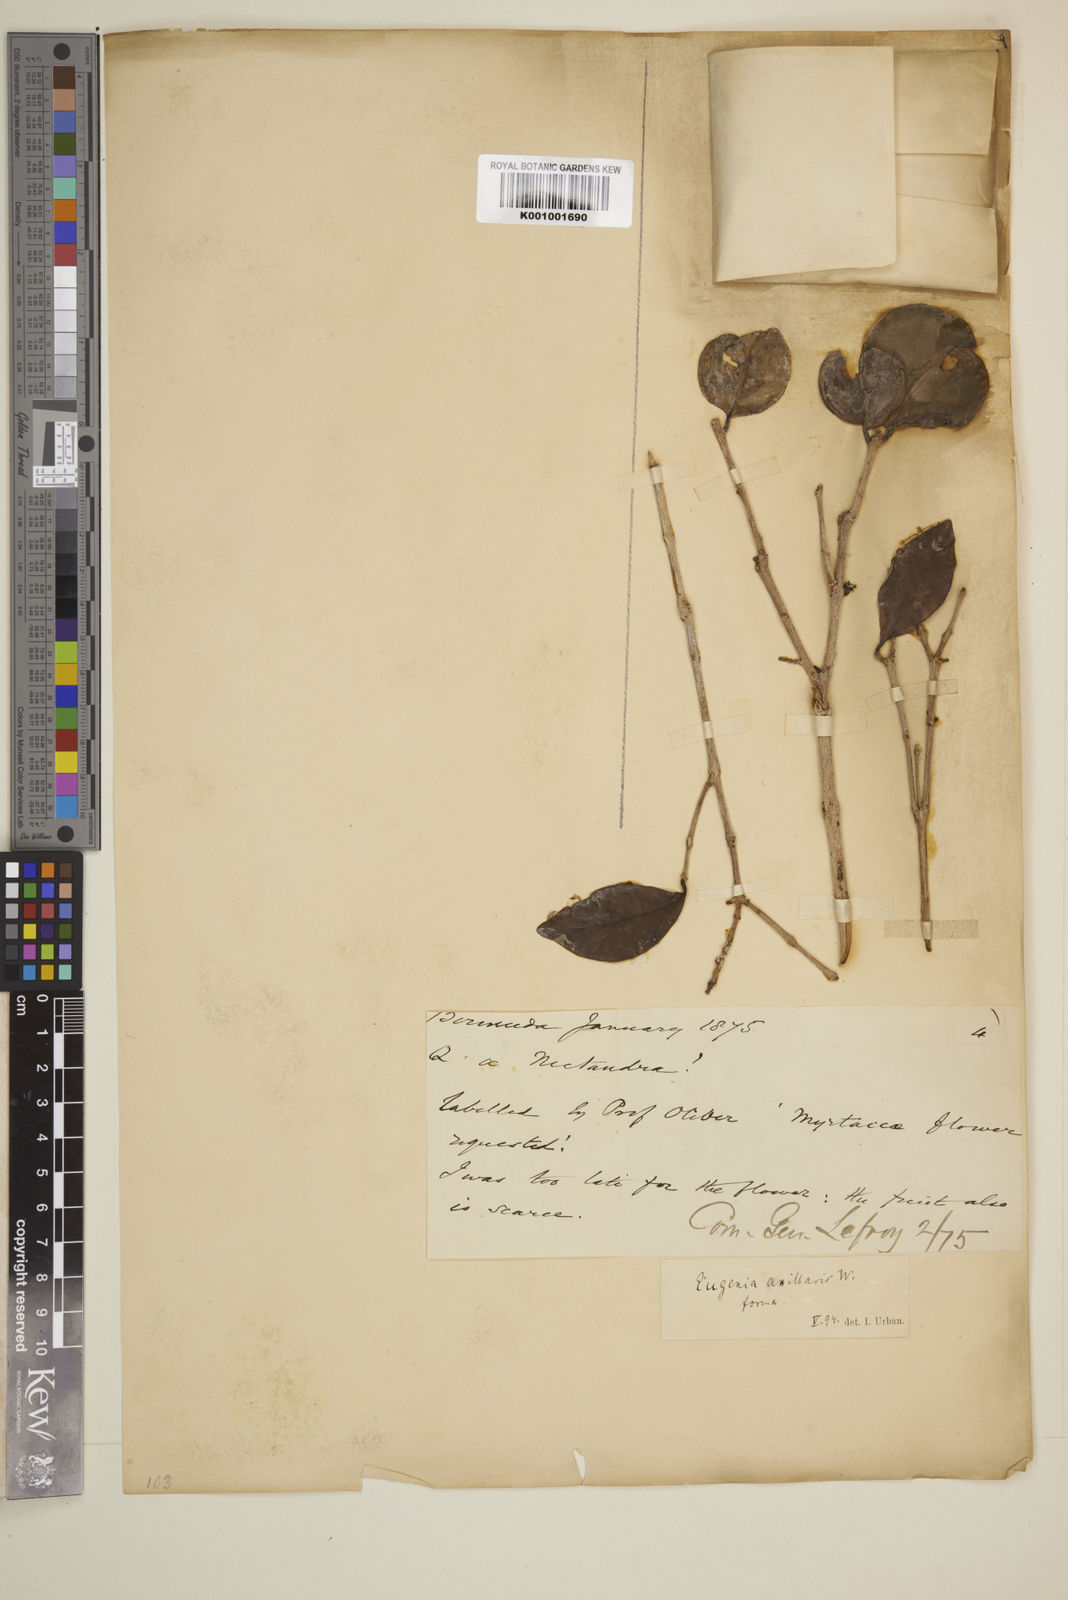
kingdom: Plantae
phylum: Tracheophyta
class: Magnoliopsida
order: Myrtales
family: Myrtaceae
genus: Eugenia
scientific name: Eugenia axillaris
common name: Choaky berry
